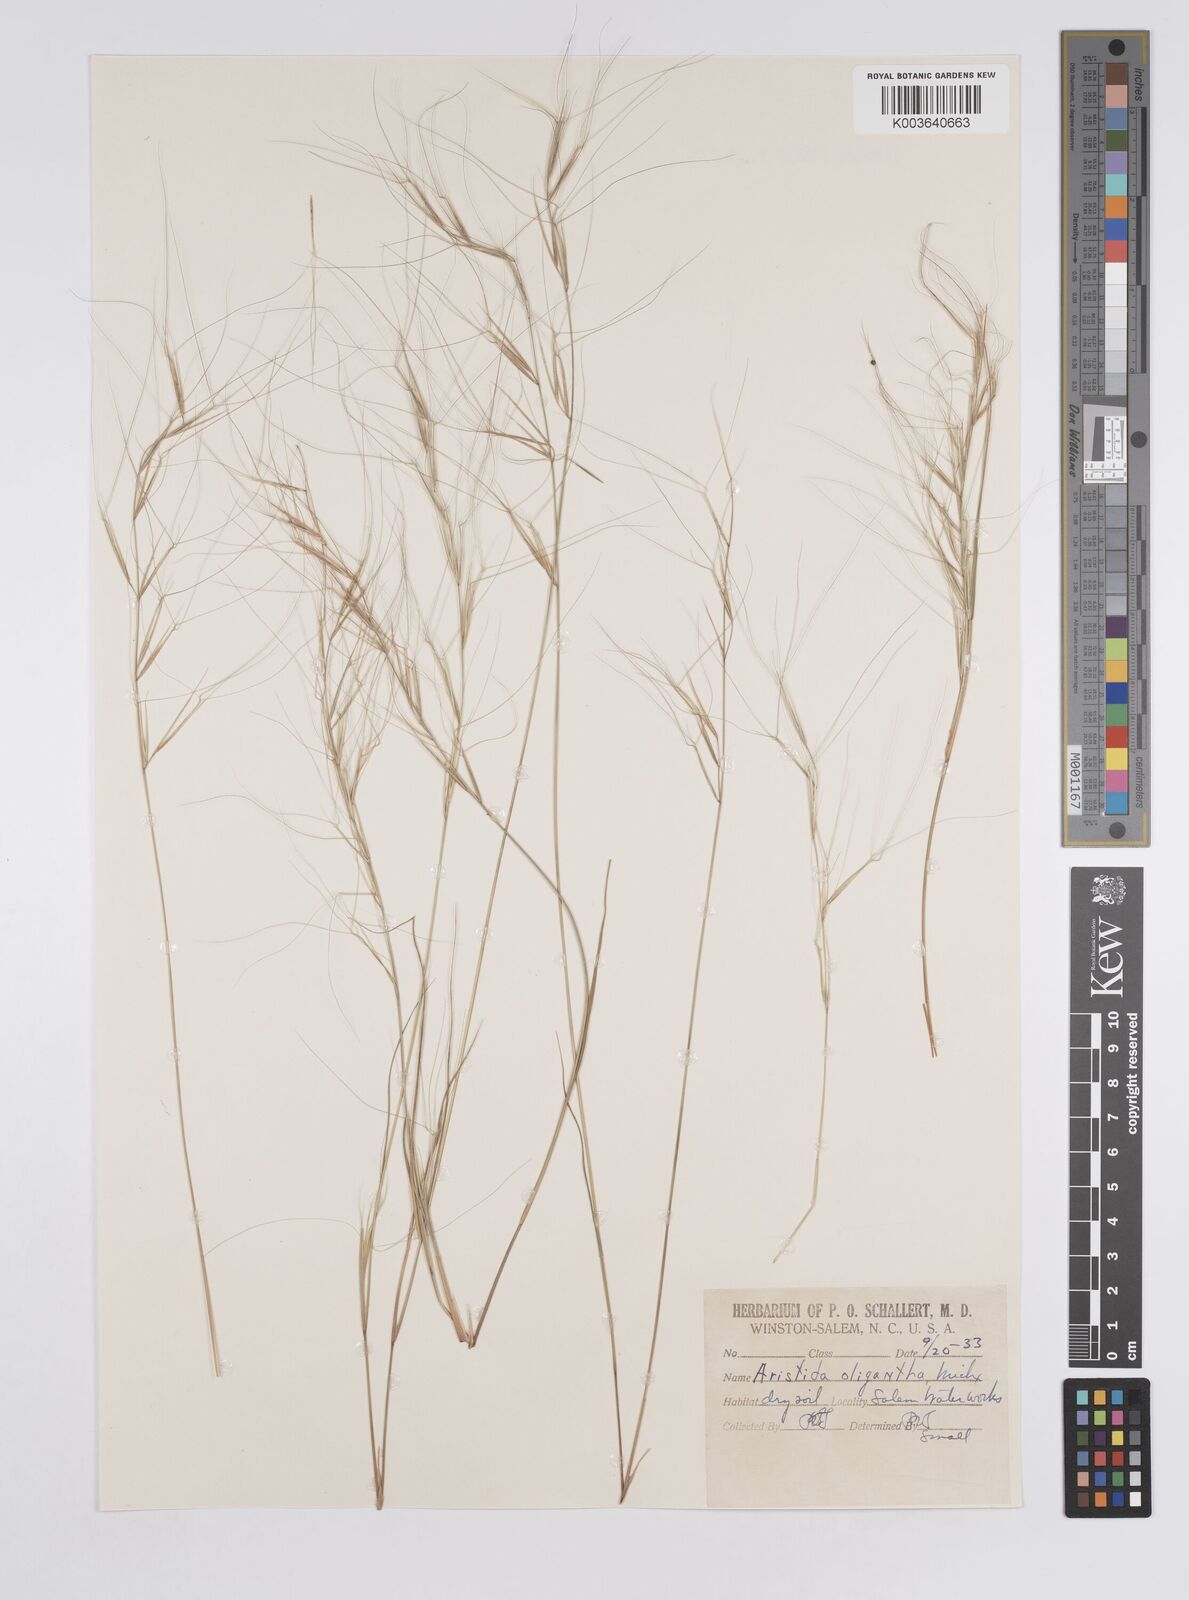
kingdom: Plantae
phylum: Tracheophyta
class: Liliopsida
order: Poales
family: Poaceae
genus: Aristida
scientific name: Aristida oligantha
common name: Few-flowered aristida
